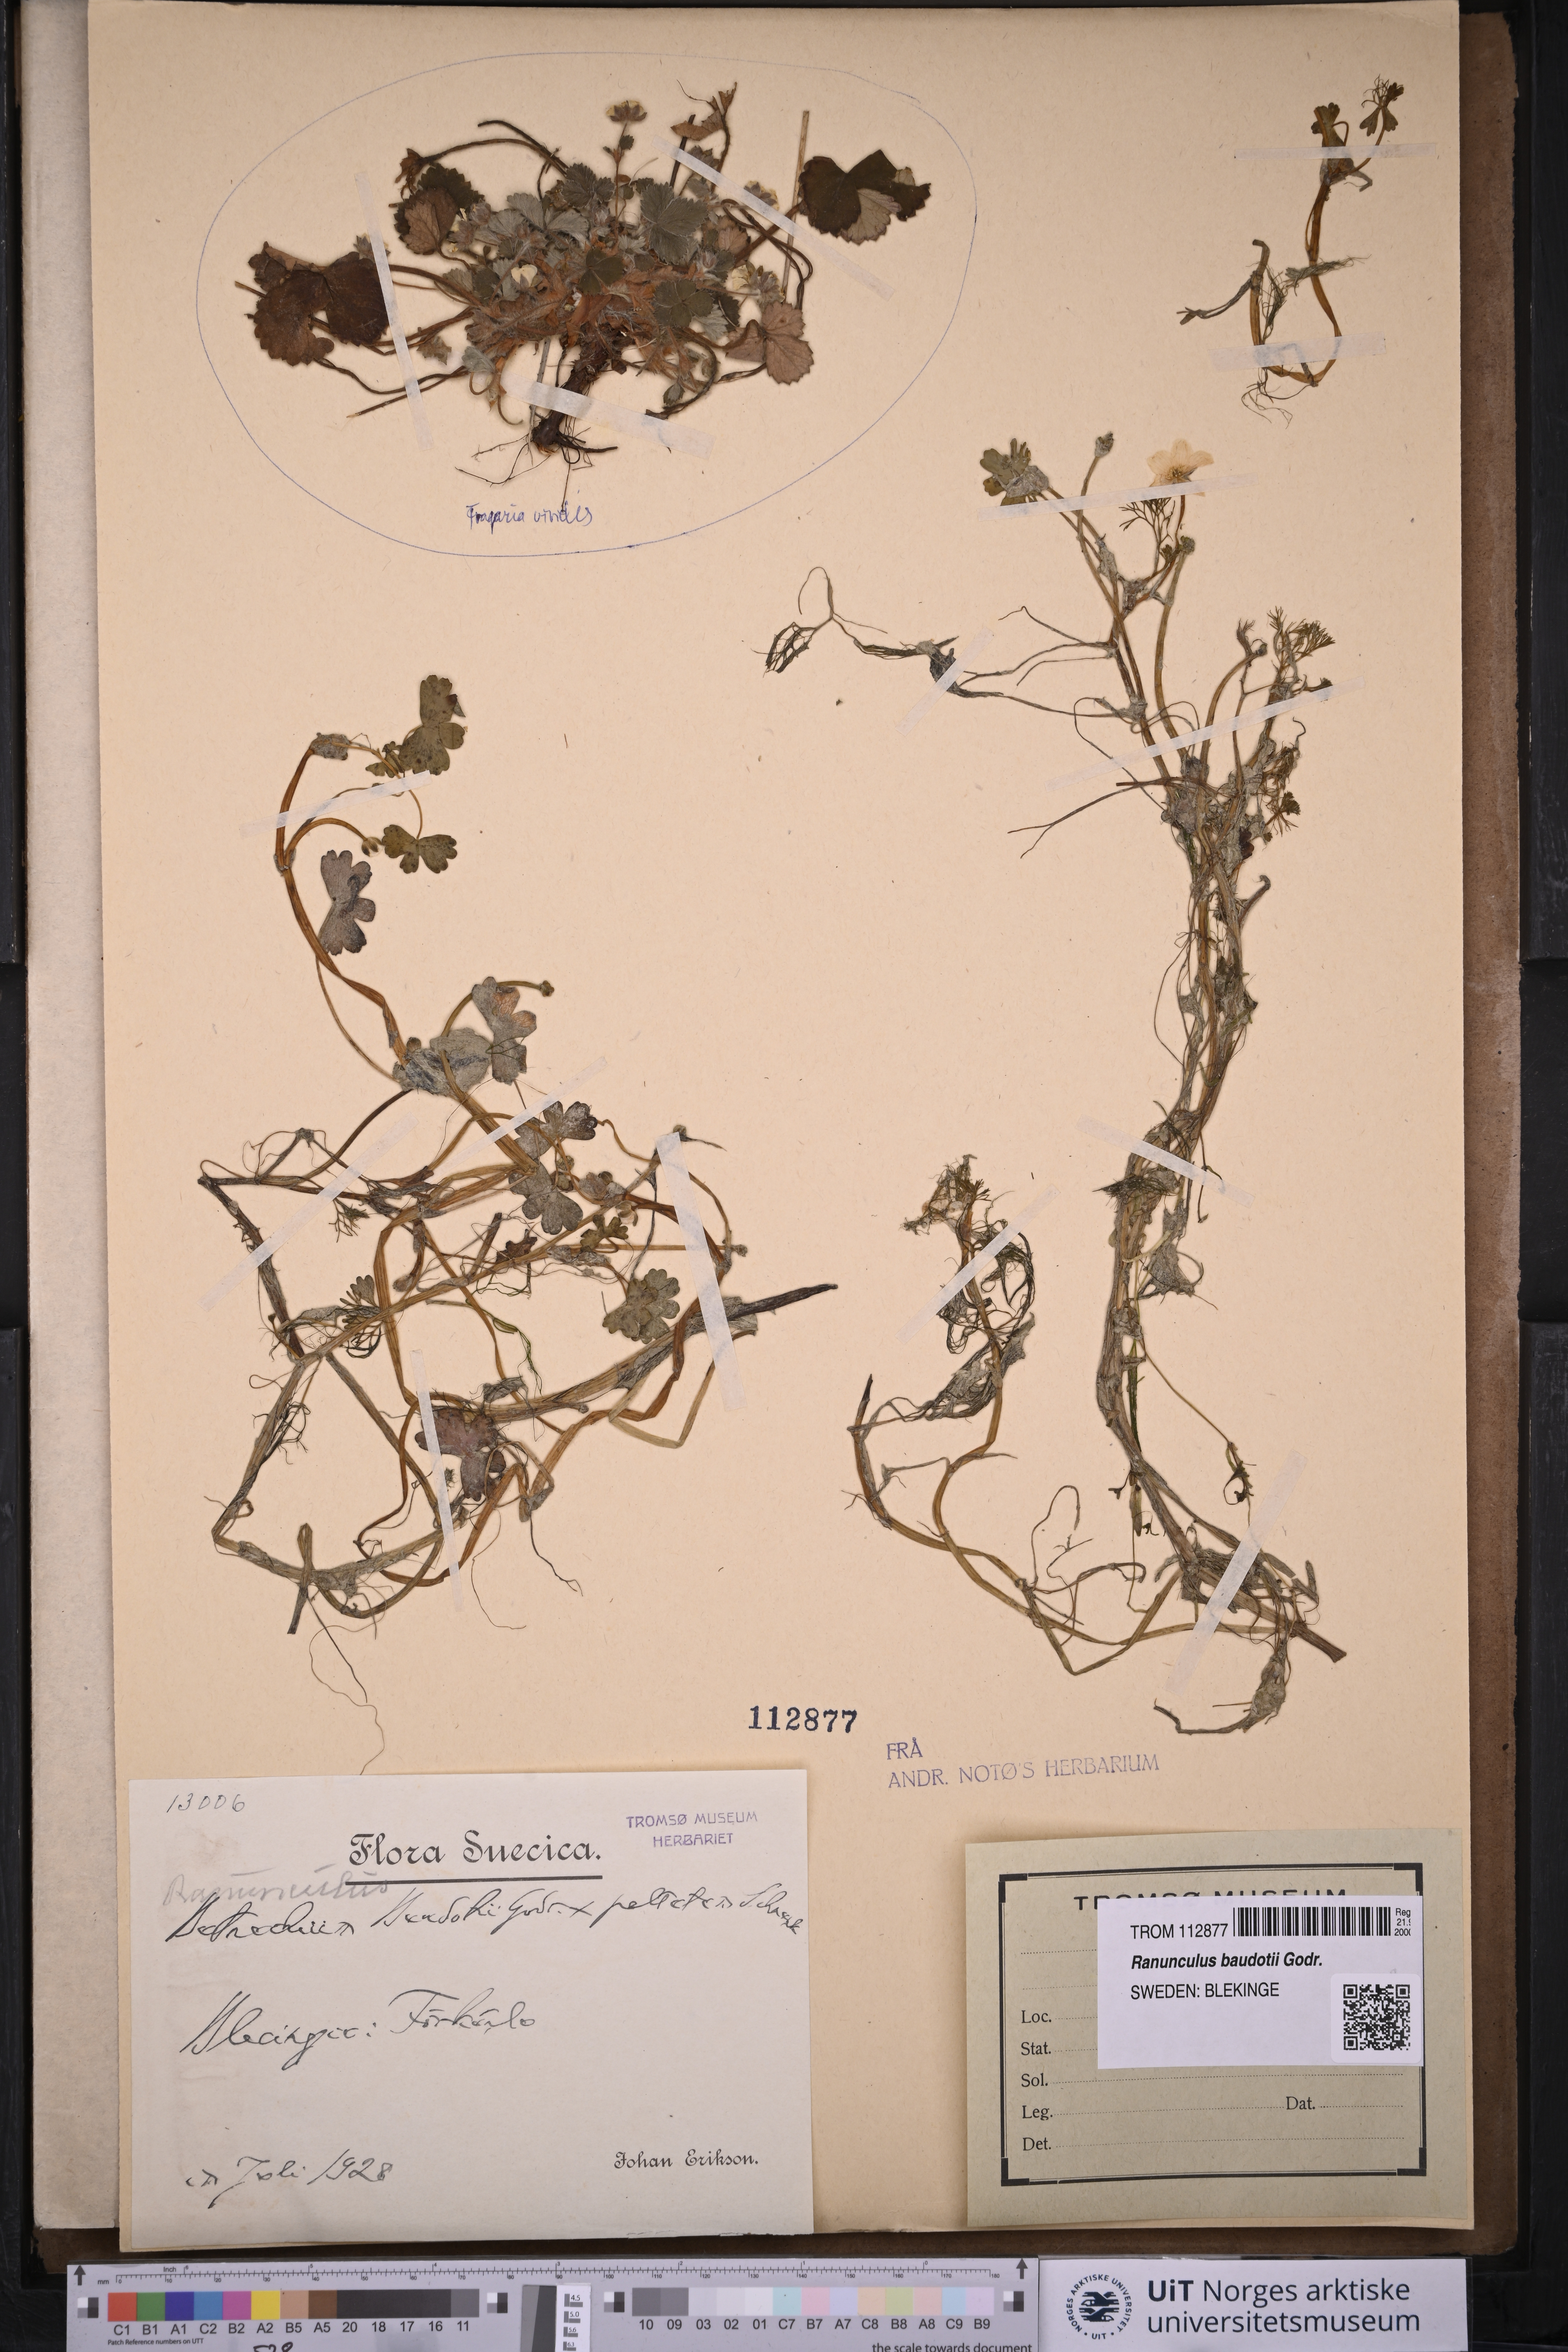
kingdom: Plantae
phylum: Tracheophyta
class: Magnoliopsida
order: Ranunculales
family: Ranunculaceae
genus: Ranunculus
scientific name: Ranunculus peltatus
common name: Pond water-crowfoot
